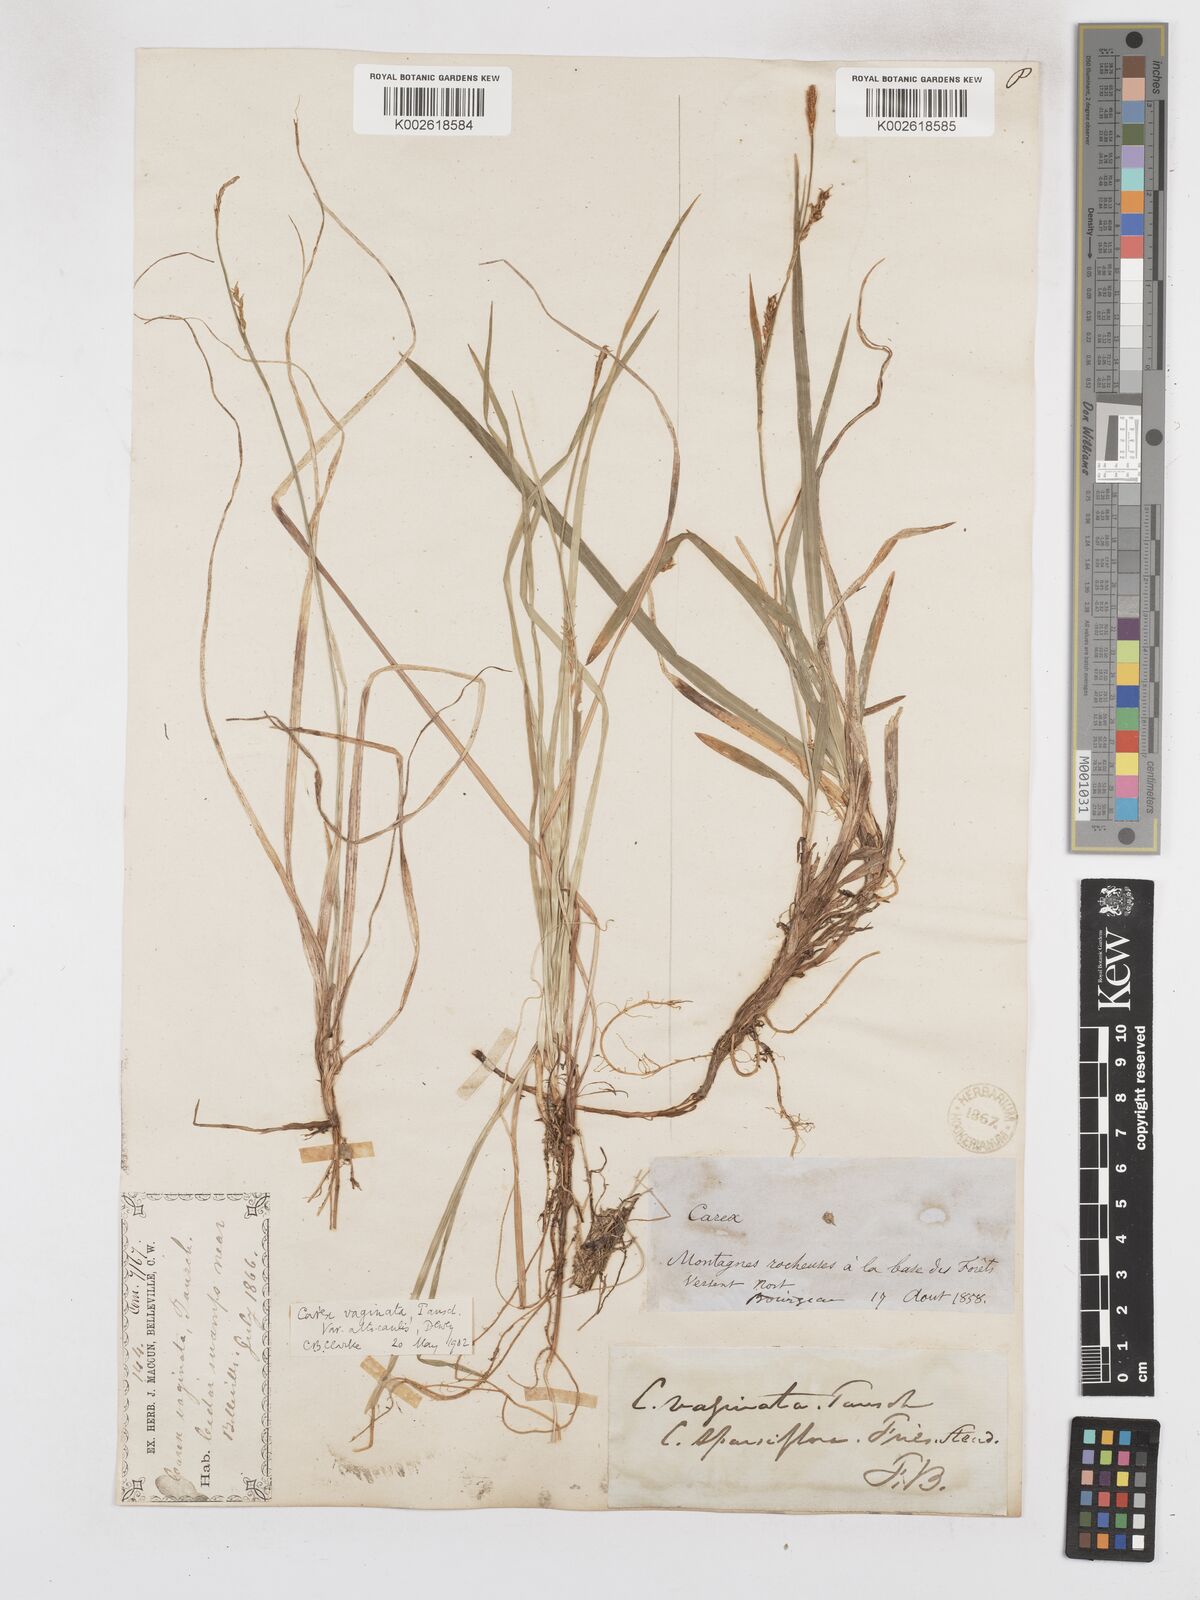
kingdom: Plantae
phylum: Tracheophyta
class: Liliopsida
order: Poales
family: Cyperaceae
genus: Carex
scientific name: Carex vaginata
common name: Sheathed sedge
